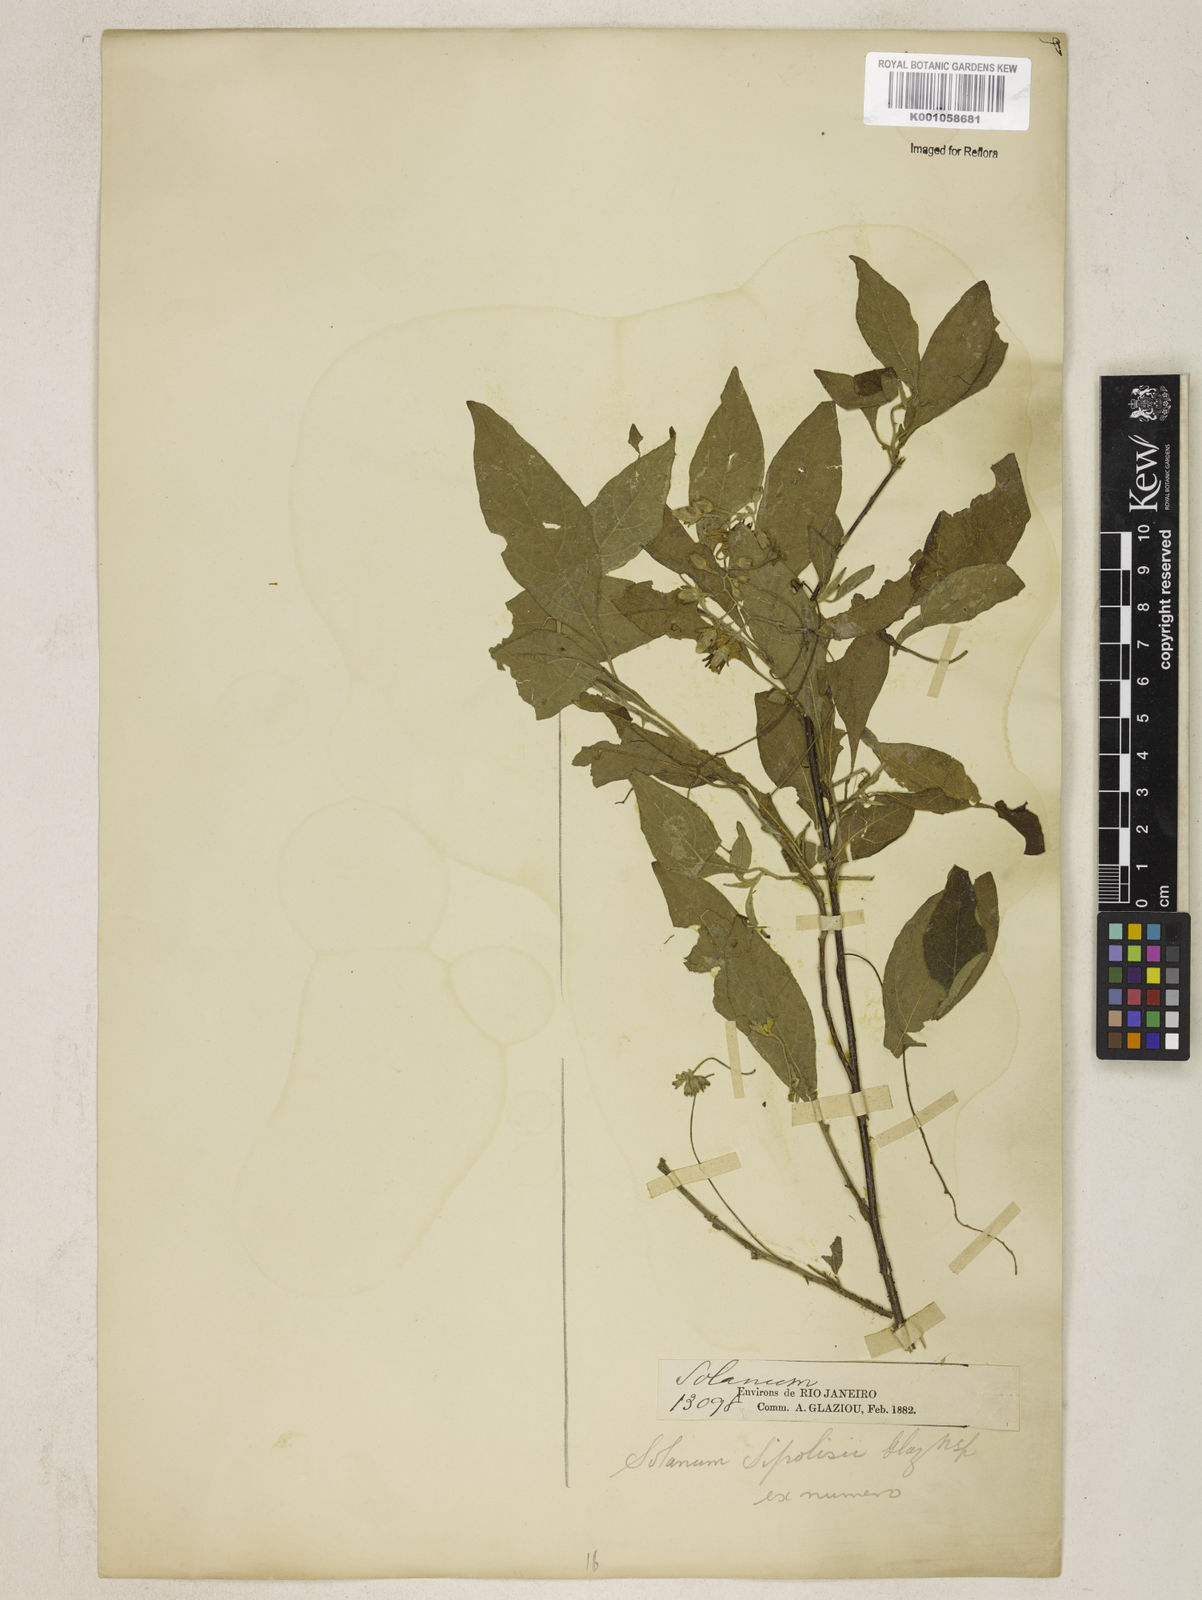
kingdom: Plantae
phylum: Tracheophyta
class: Magnoliopsida
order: Solanales
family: Solanaceae
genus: Solanum
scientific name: Solanum sipolisii
